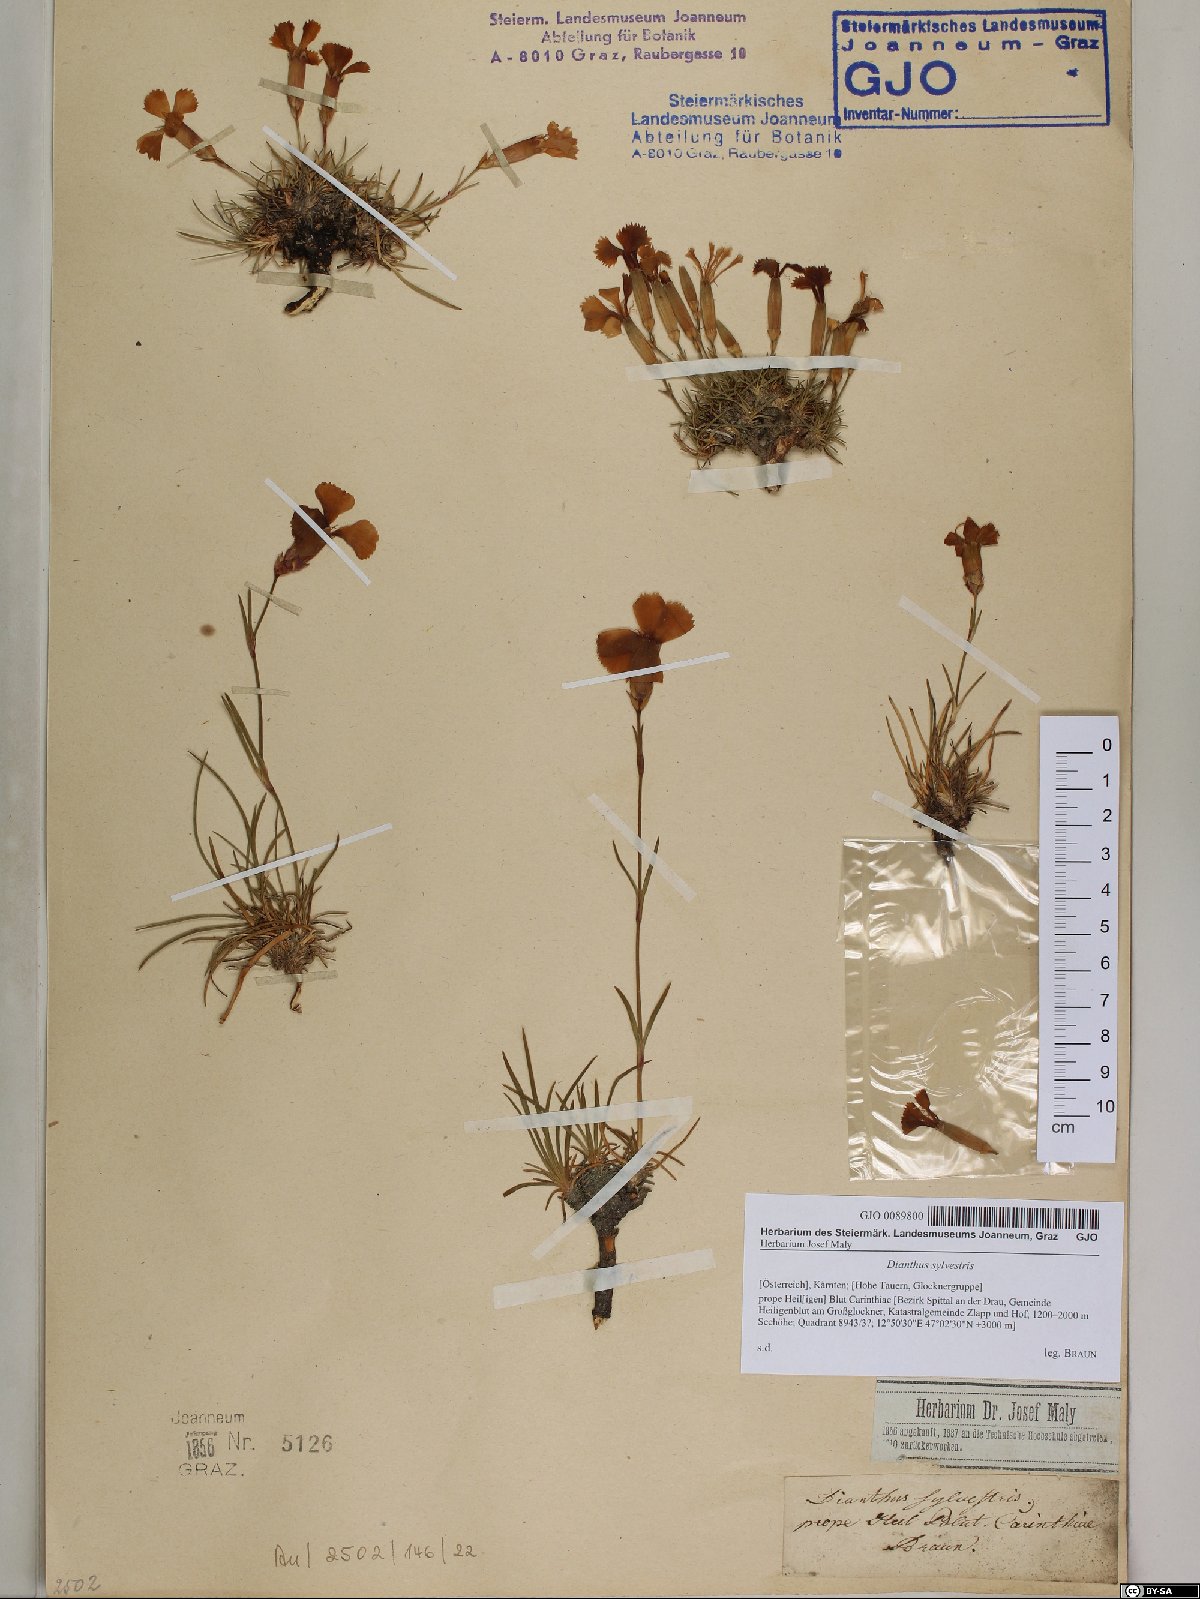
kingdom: Plantae
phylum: Tracheophyta
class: Magnoliopsida
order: Caryophyllales
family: Caryophyllaceae
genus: Dianthus
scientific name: Dianthus sylvestris
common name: Wood pink
